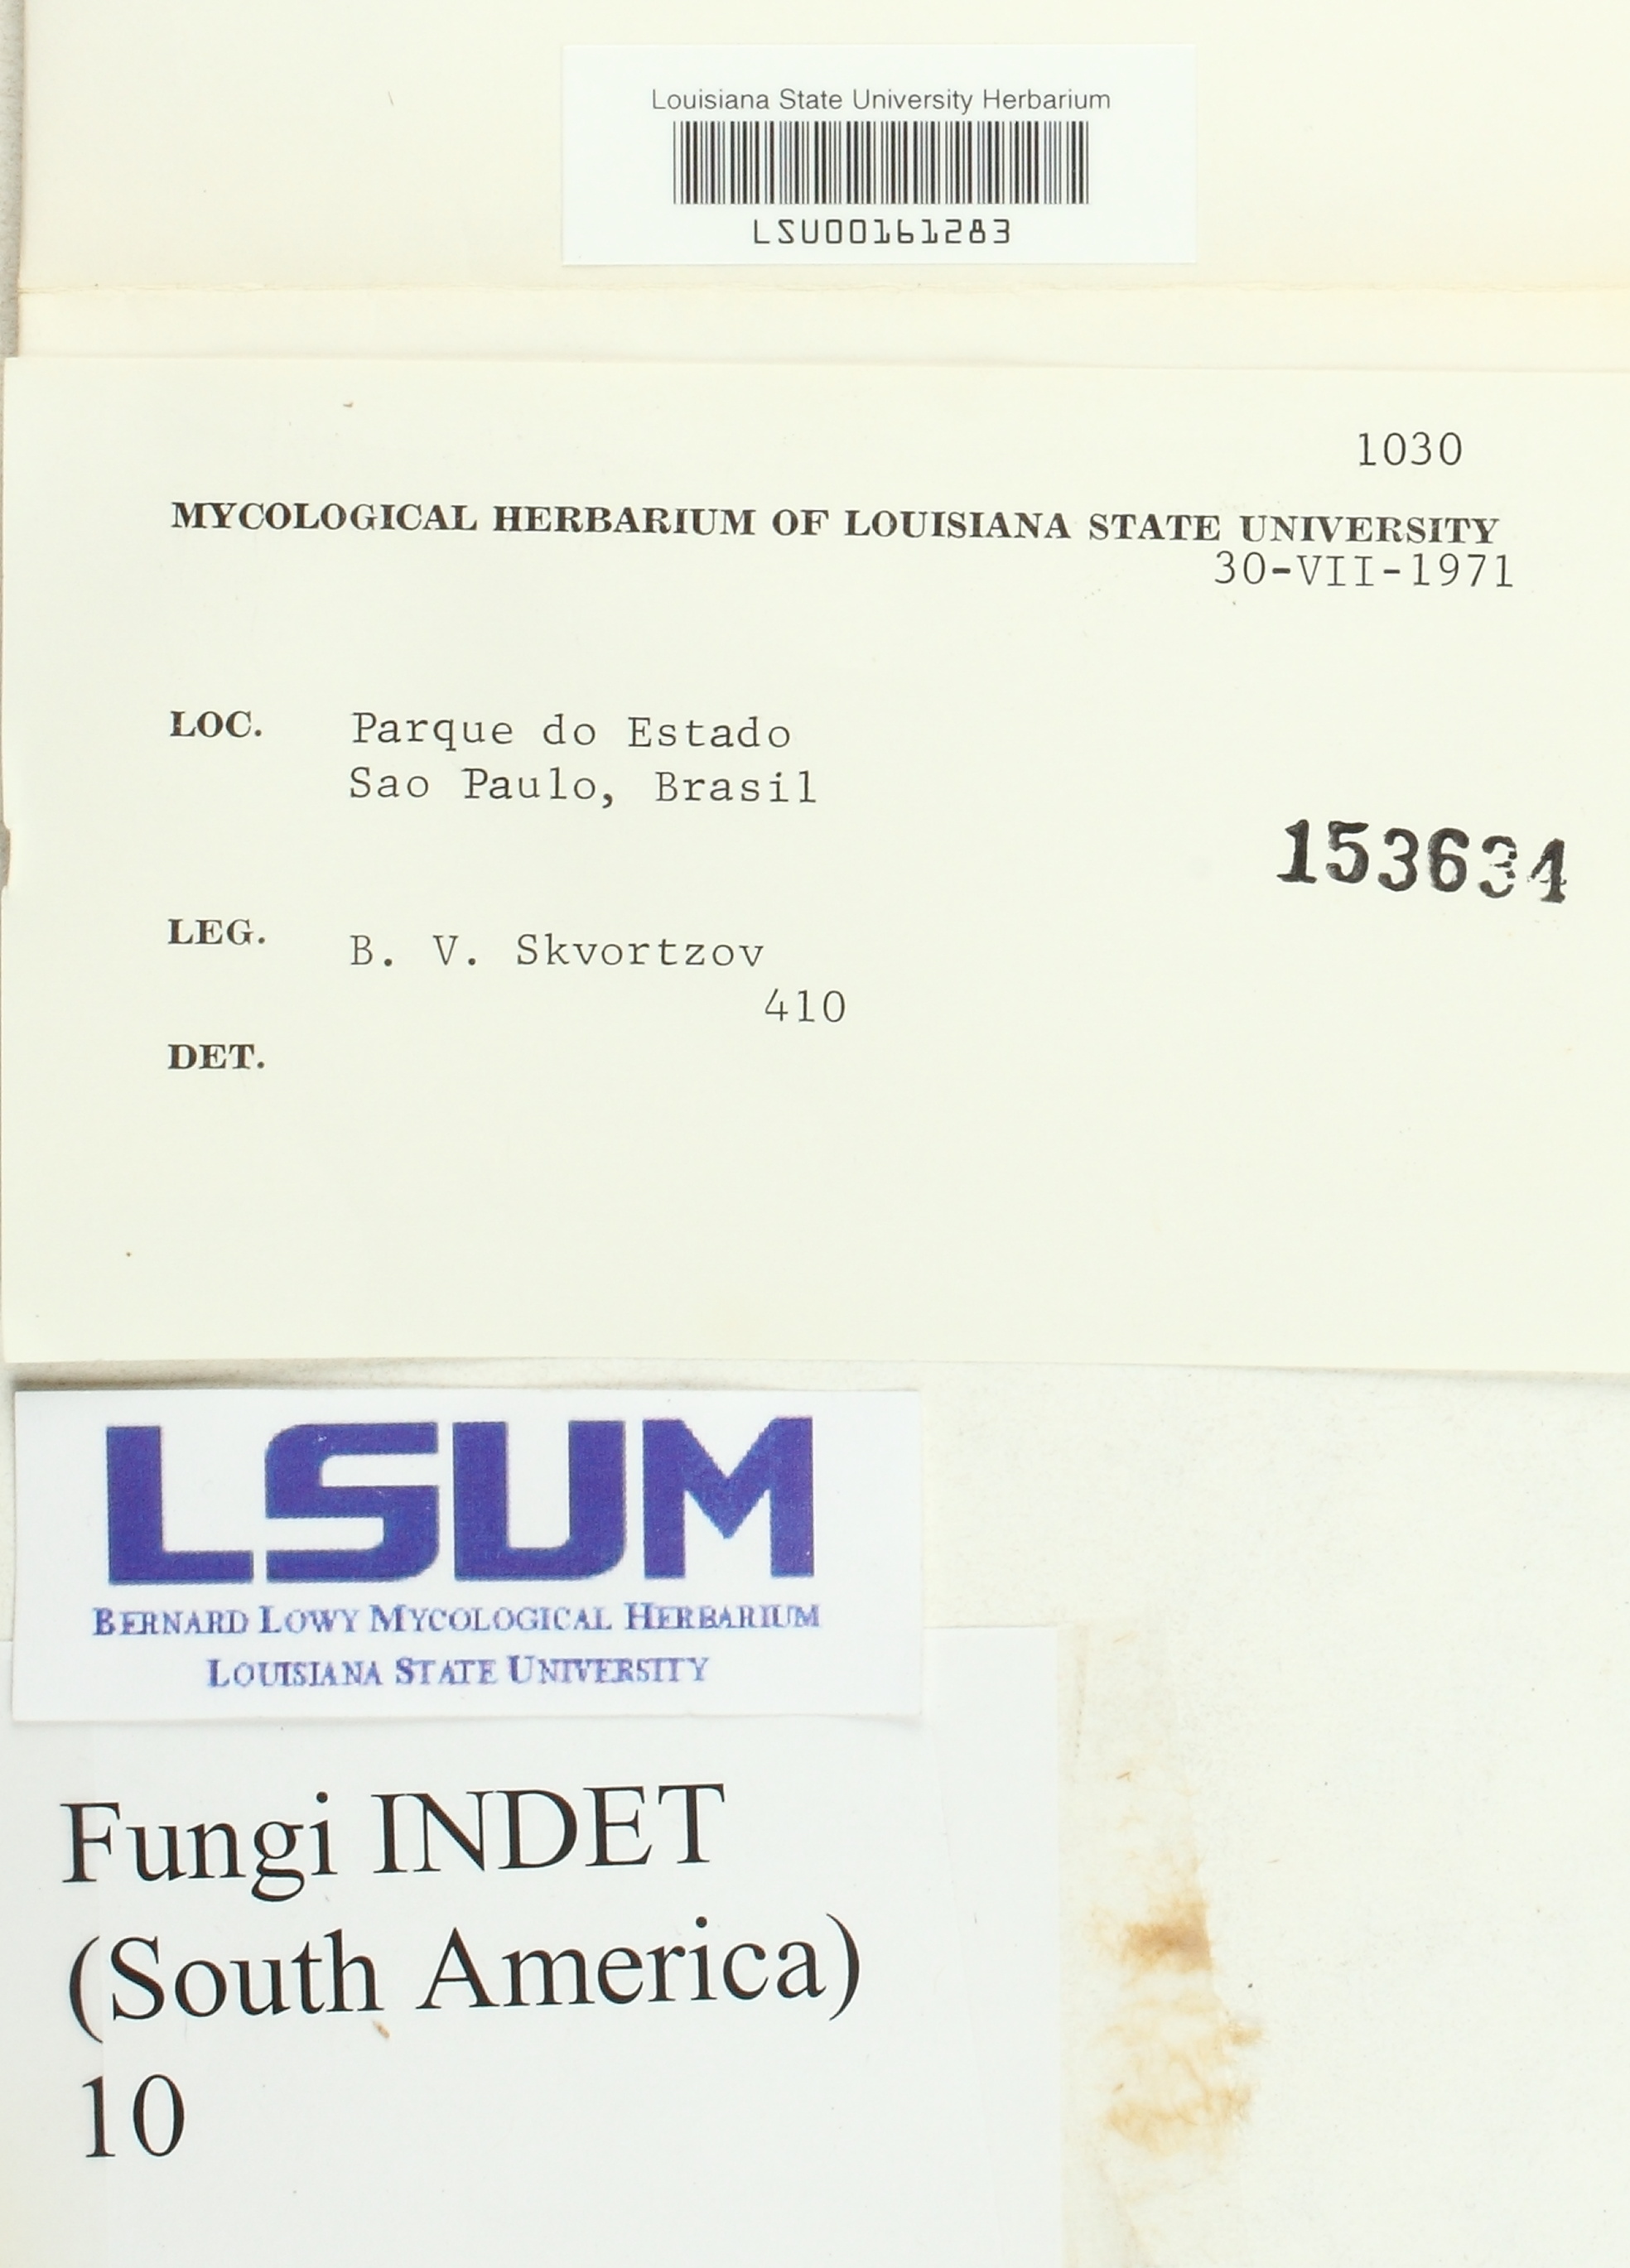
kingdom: Fungi
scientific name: Fungi
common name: Fungi
